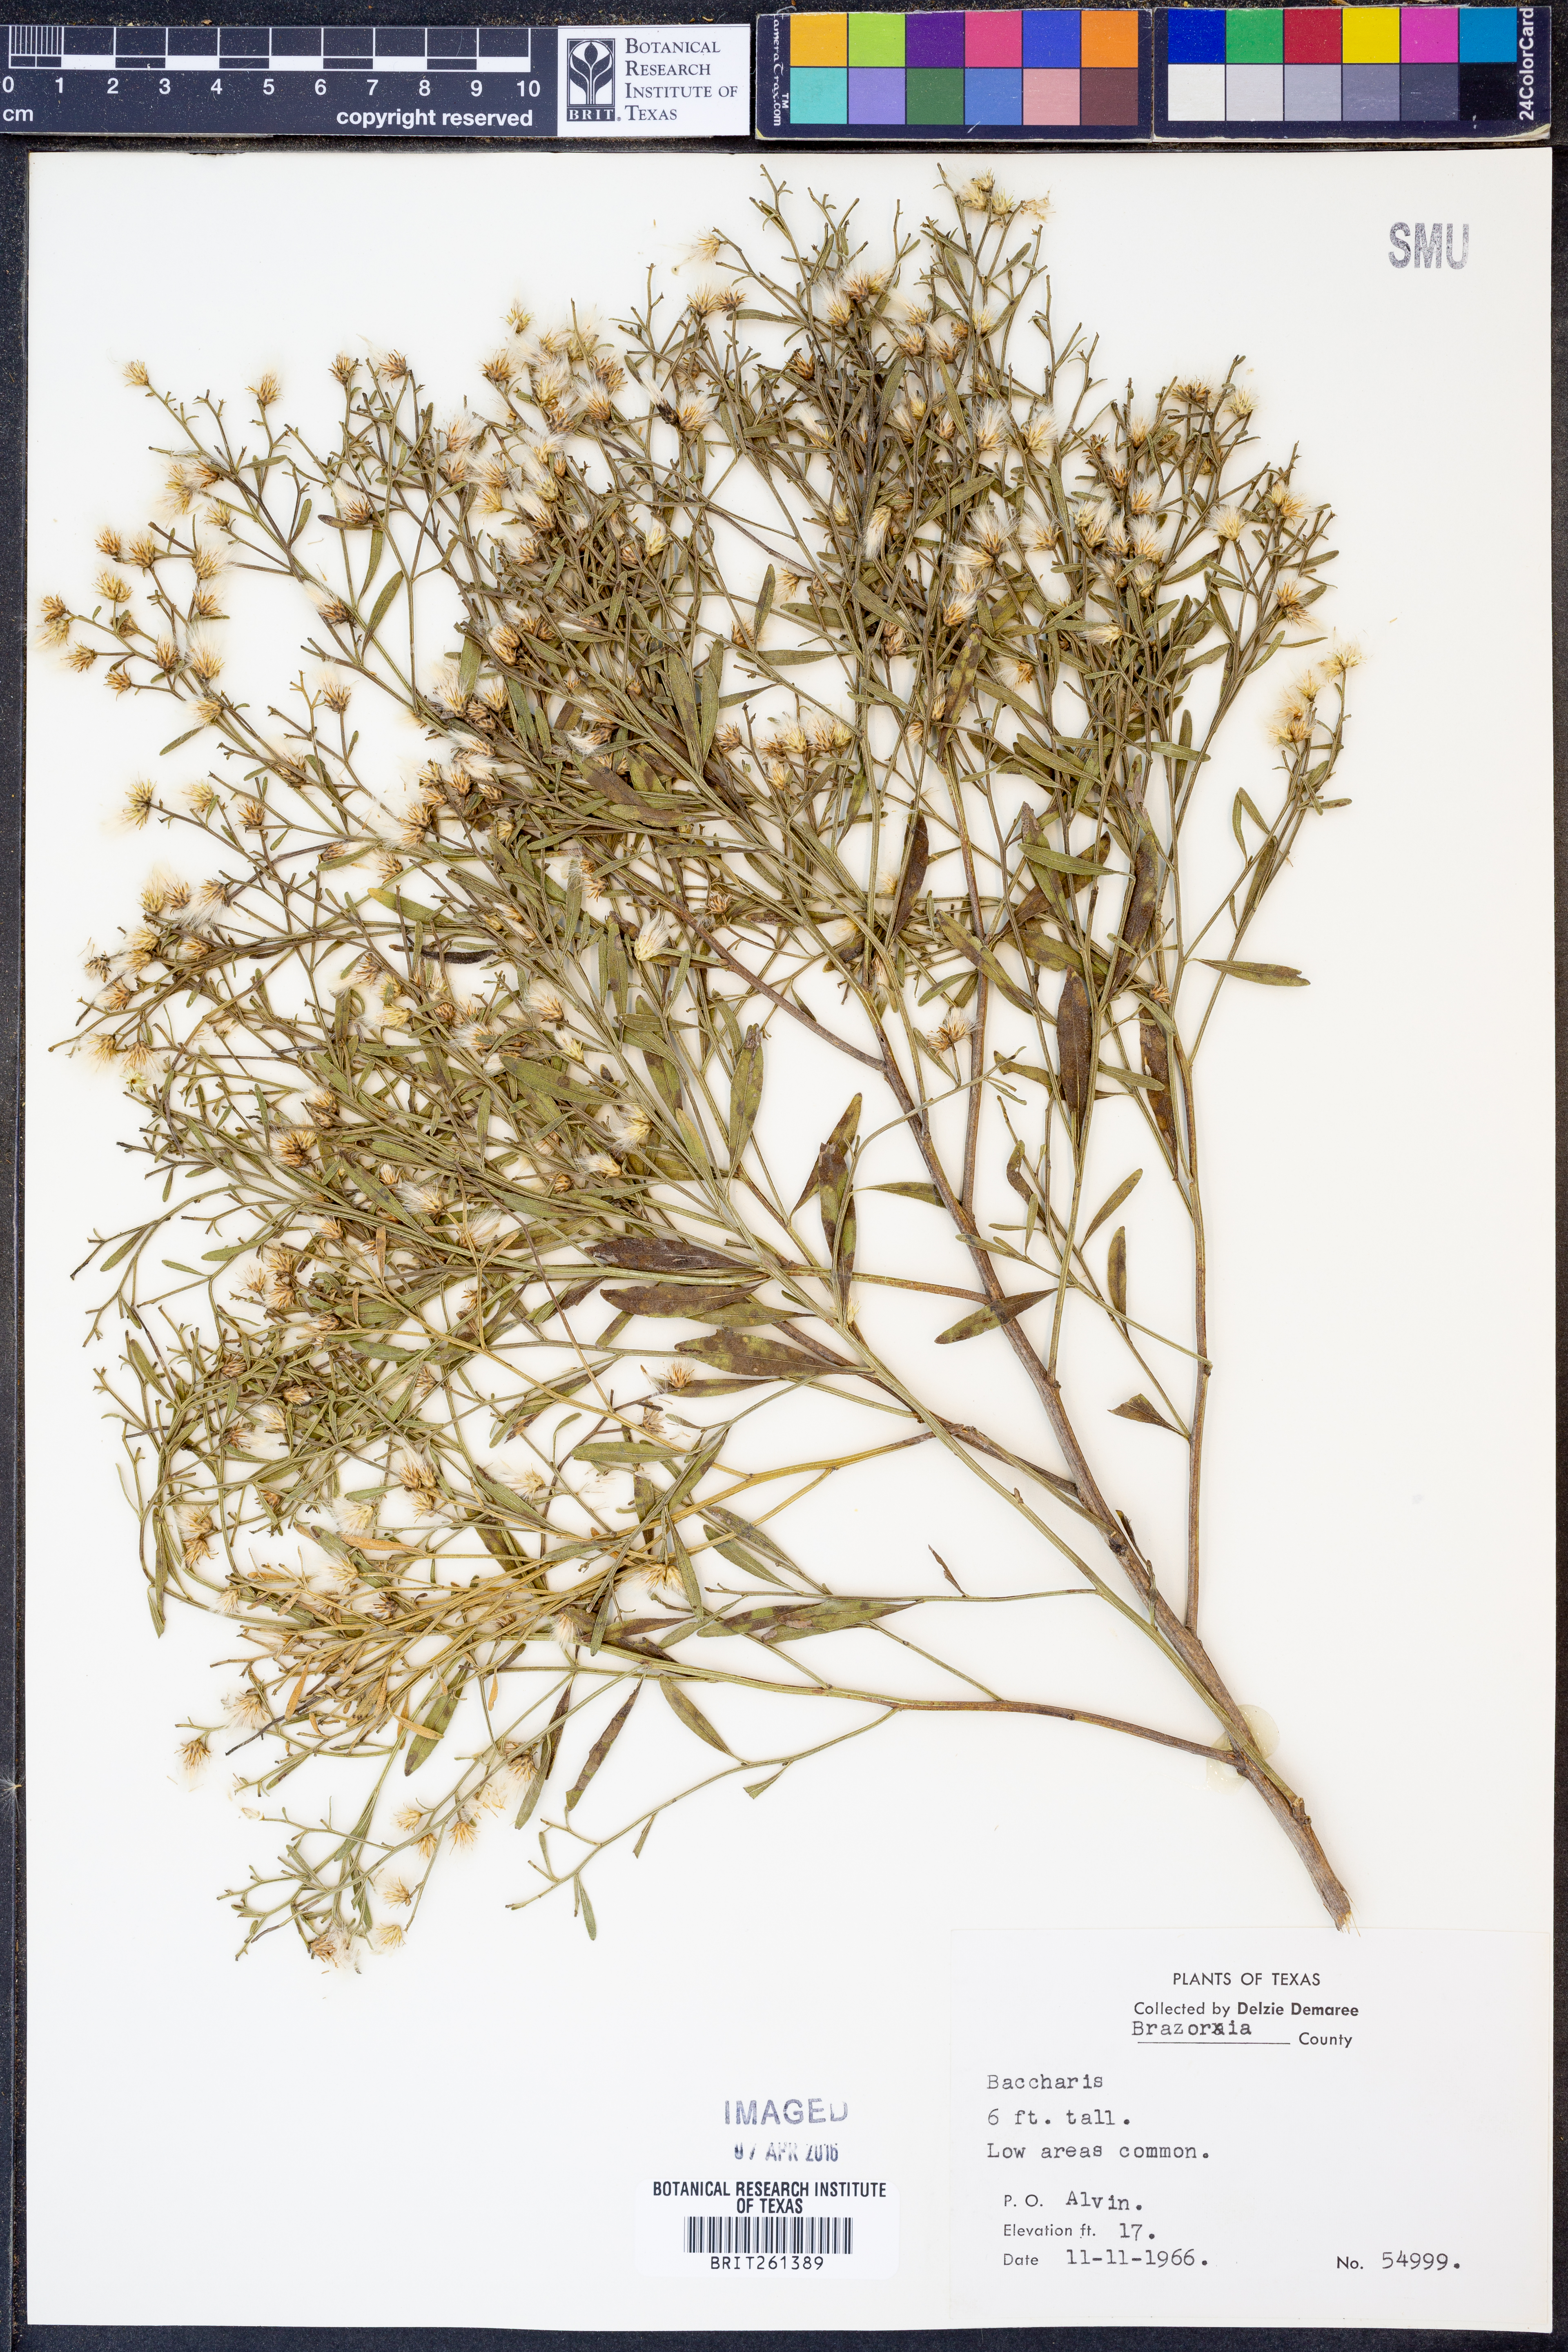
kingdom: Plantae
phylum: Tracheophyta
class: Magnoliopsida
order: Asterales
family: Asteraceae
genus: Nidorella
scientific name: Nidorella ivifolia
